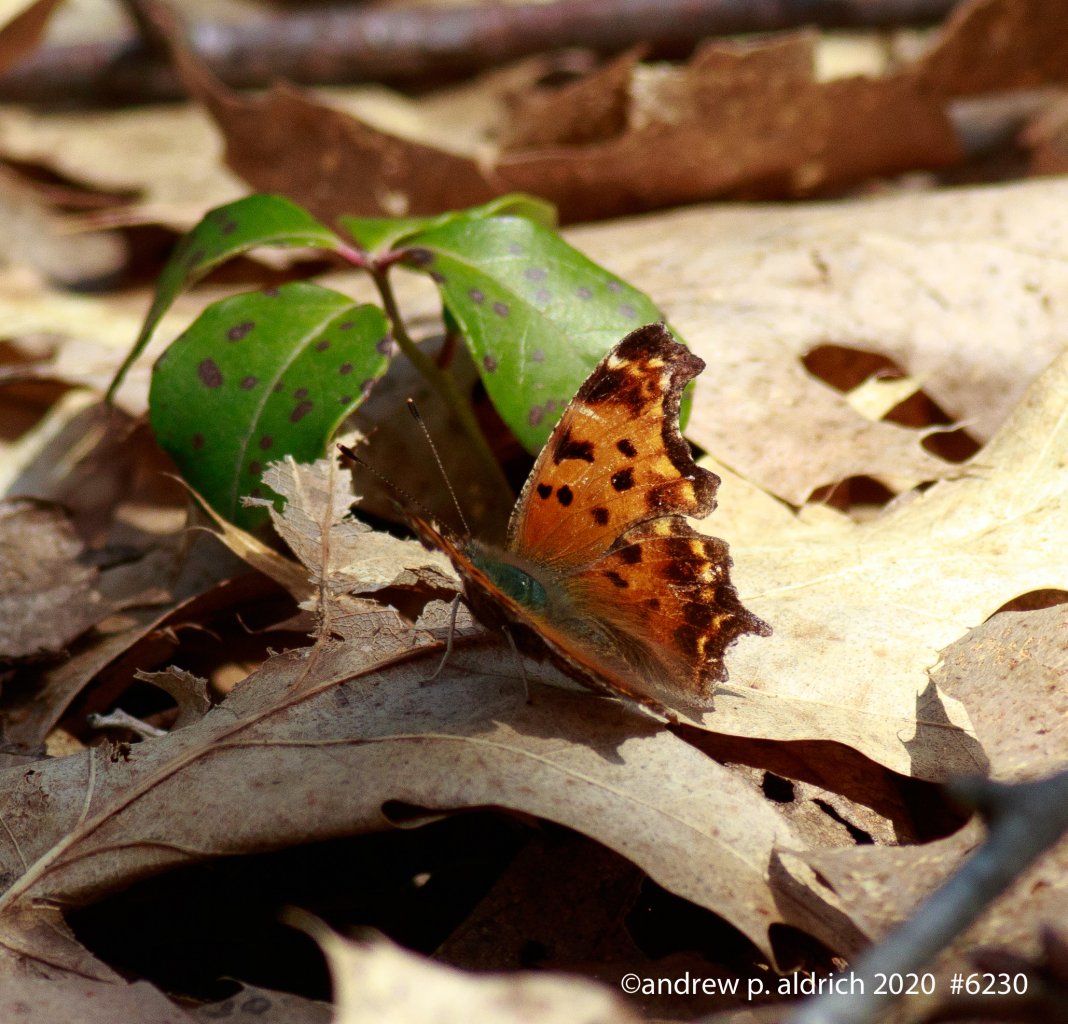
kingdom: Animalia
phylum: Arthropoda
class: Insecta
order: Lepidoptera
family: Nymphalidae
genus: Polygonia
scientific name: Polygonia comma
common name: Eastern Comma
